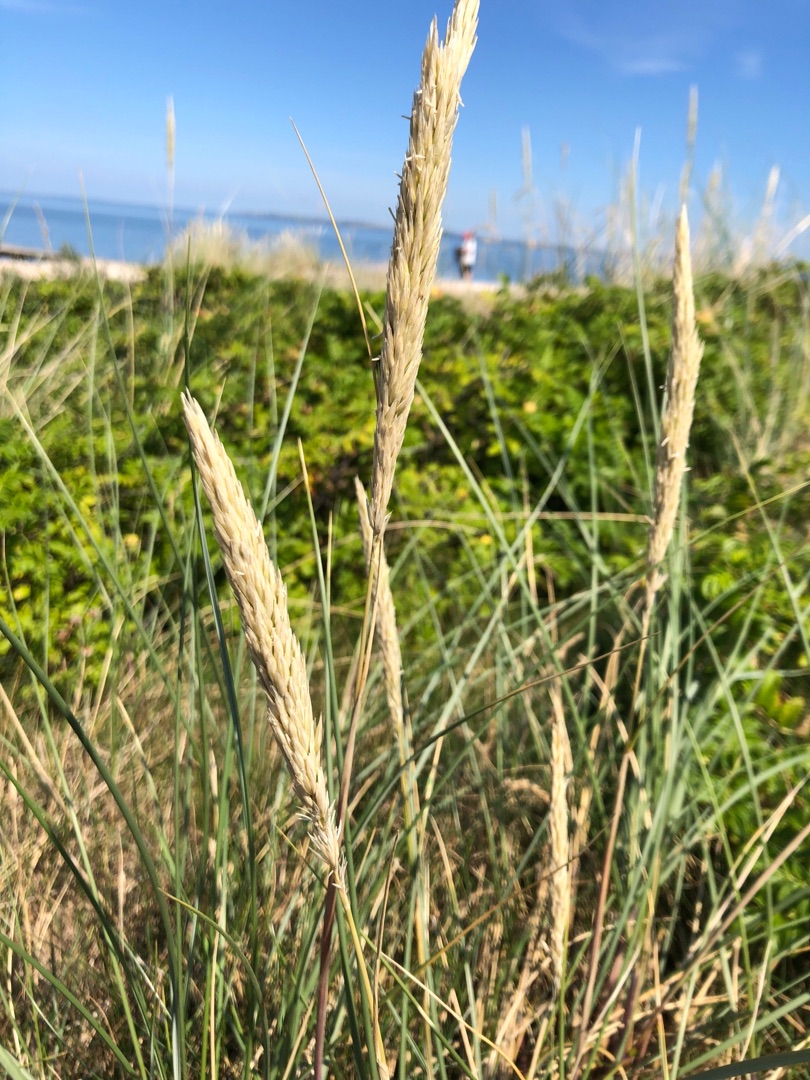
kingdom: Plantae
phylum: Tracheophyta
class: Liliopsida
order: Poales
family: Poaceae
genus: Calamagrostis
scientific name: Calamagrostis arenaria
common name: Sand-hjælme
